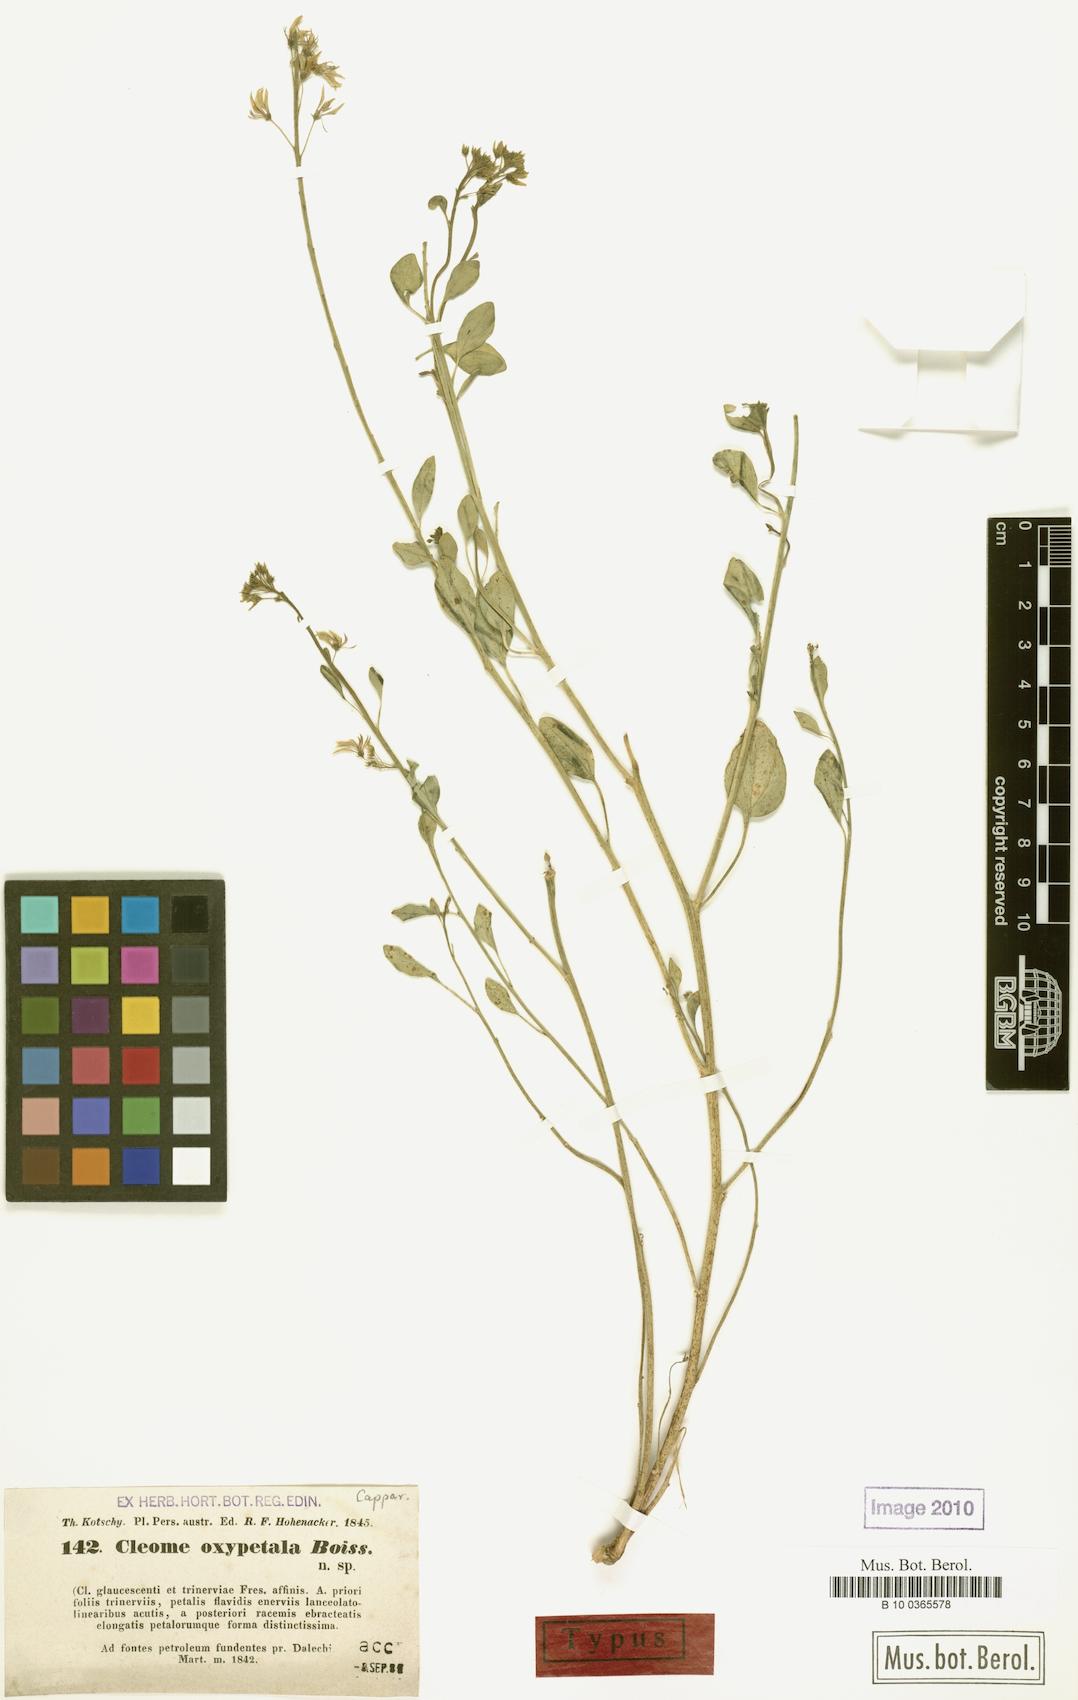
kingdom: Plantae
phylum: Tracheophyta
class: Magnoliopsida
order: Brassicales
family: Cleomaceae
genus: Cleome
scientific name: Cleome oxypetala
